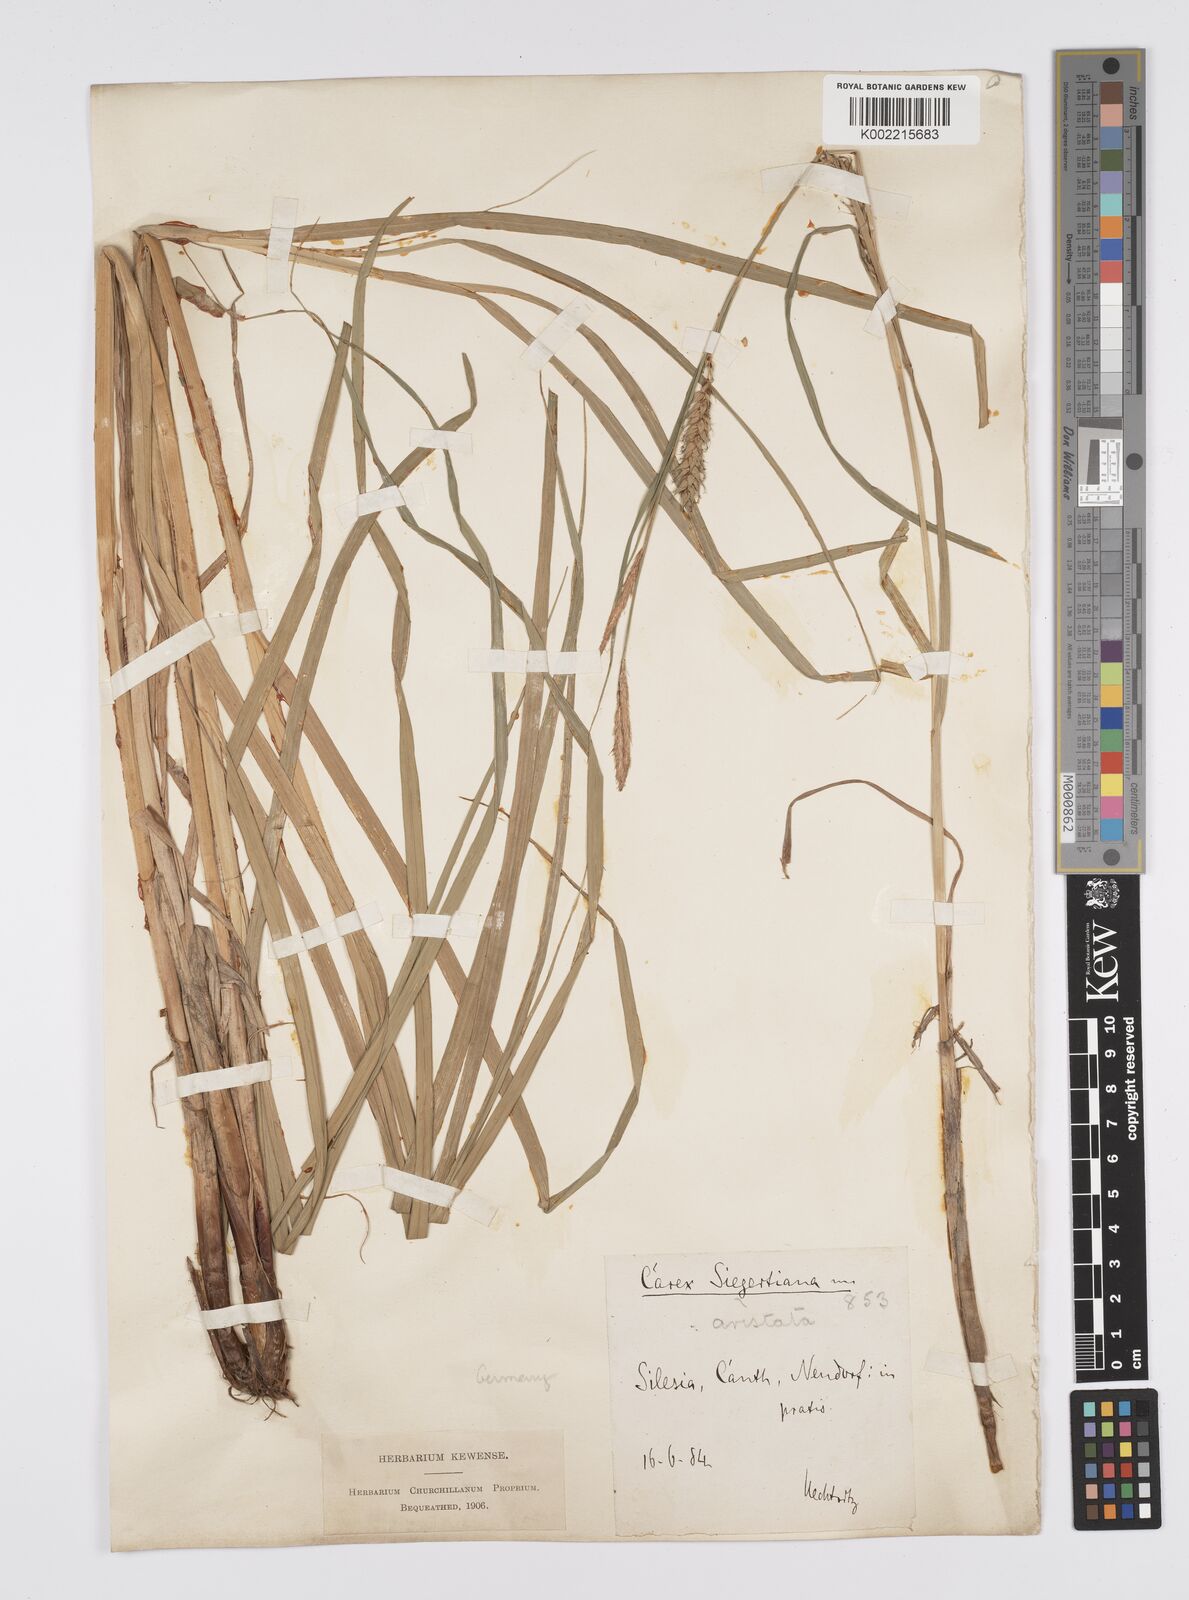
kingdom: Plantae
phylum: Tracheophyta
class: Liliopsida
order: Poales
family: Cyperaceae
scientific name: Cyperaceae
